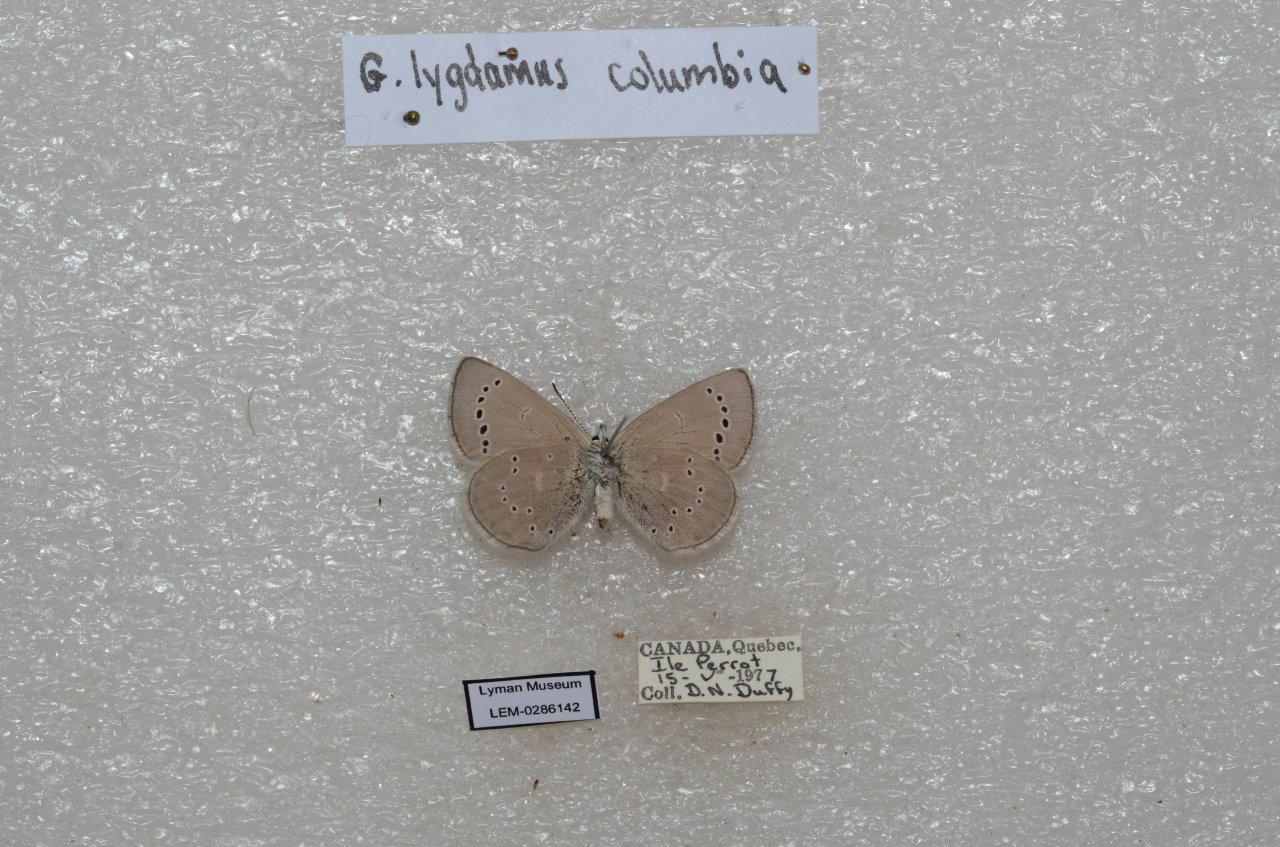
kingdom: Animalia
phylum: Arthropoda
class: Insecta
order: Lepidoptera
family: Lycaenidae
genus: Glaucopsyche
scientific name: Glaucopsyche lygdamus
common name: Silvery Blue
